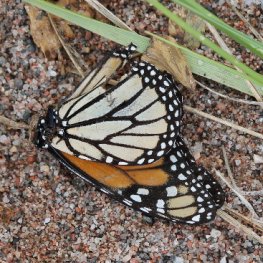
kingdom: Animalia
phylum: Arthropoda
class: Insecta
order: Lepidoptera
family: Nymphalidae
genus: Danaus
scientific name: Danaus plexippus
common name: Monarch
